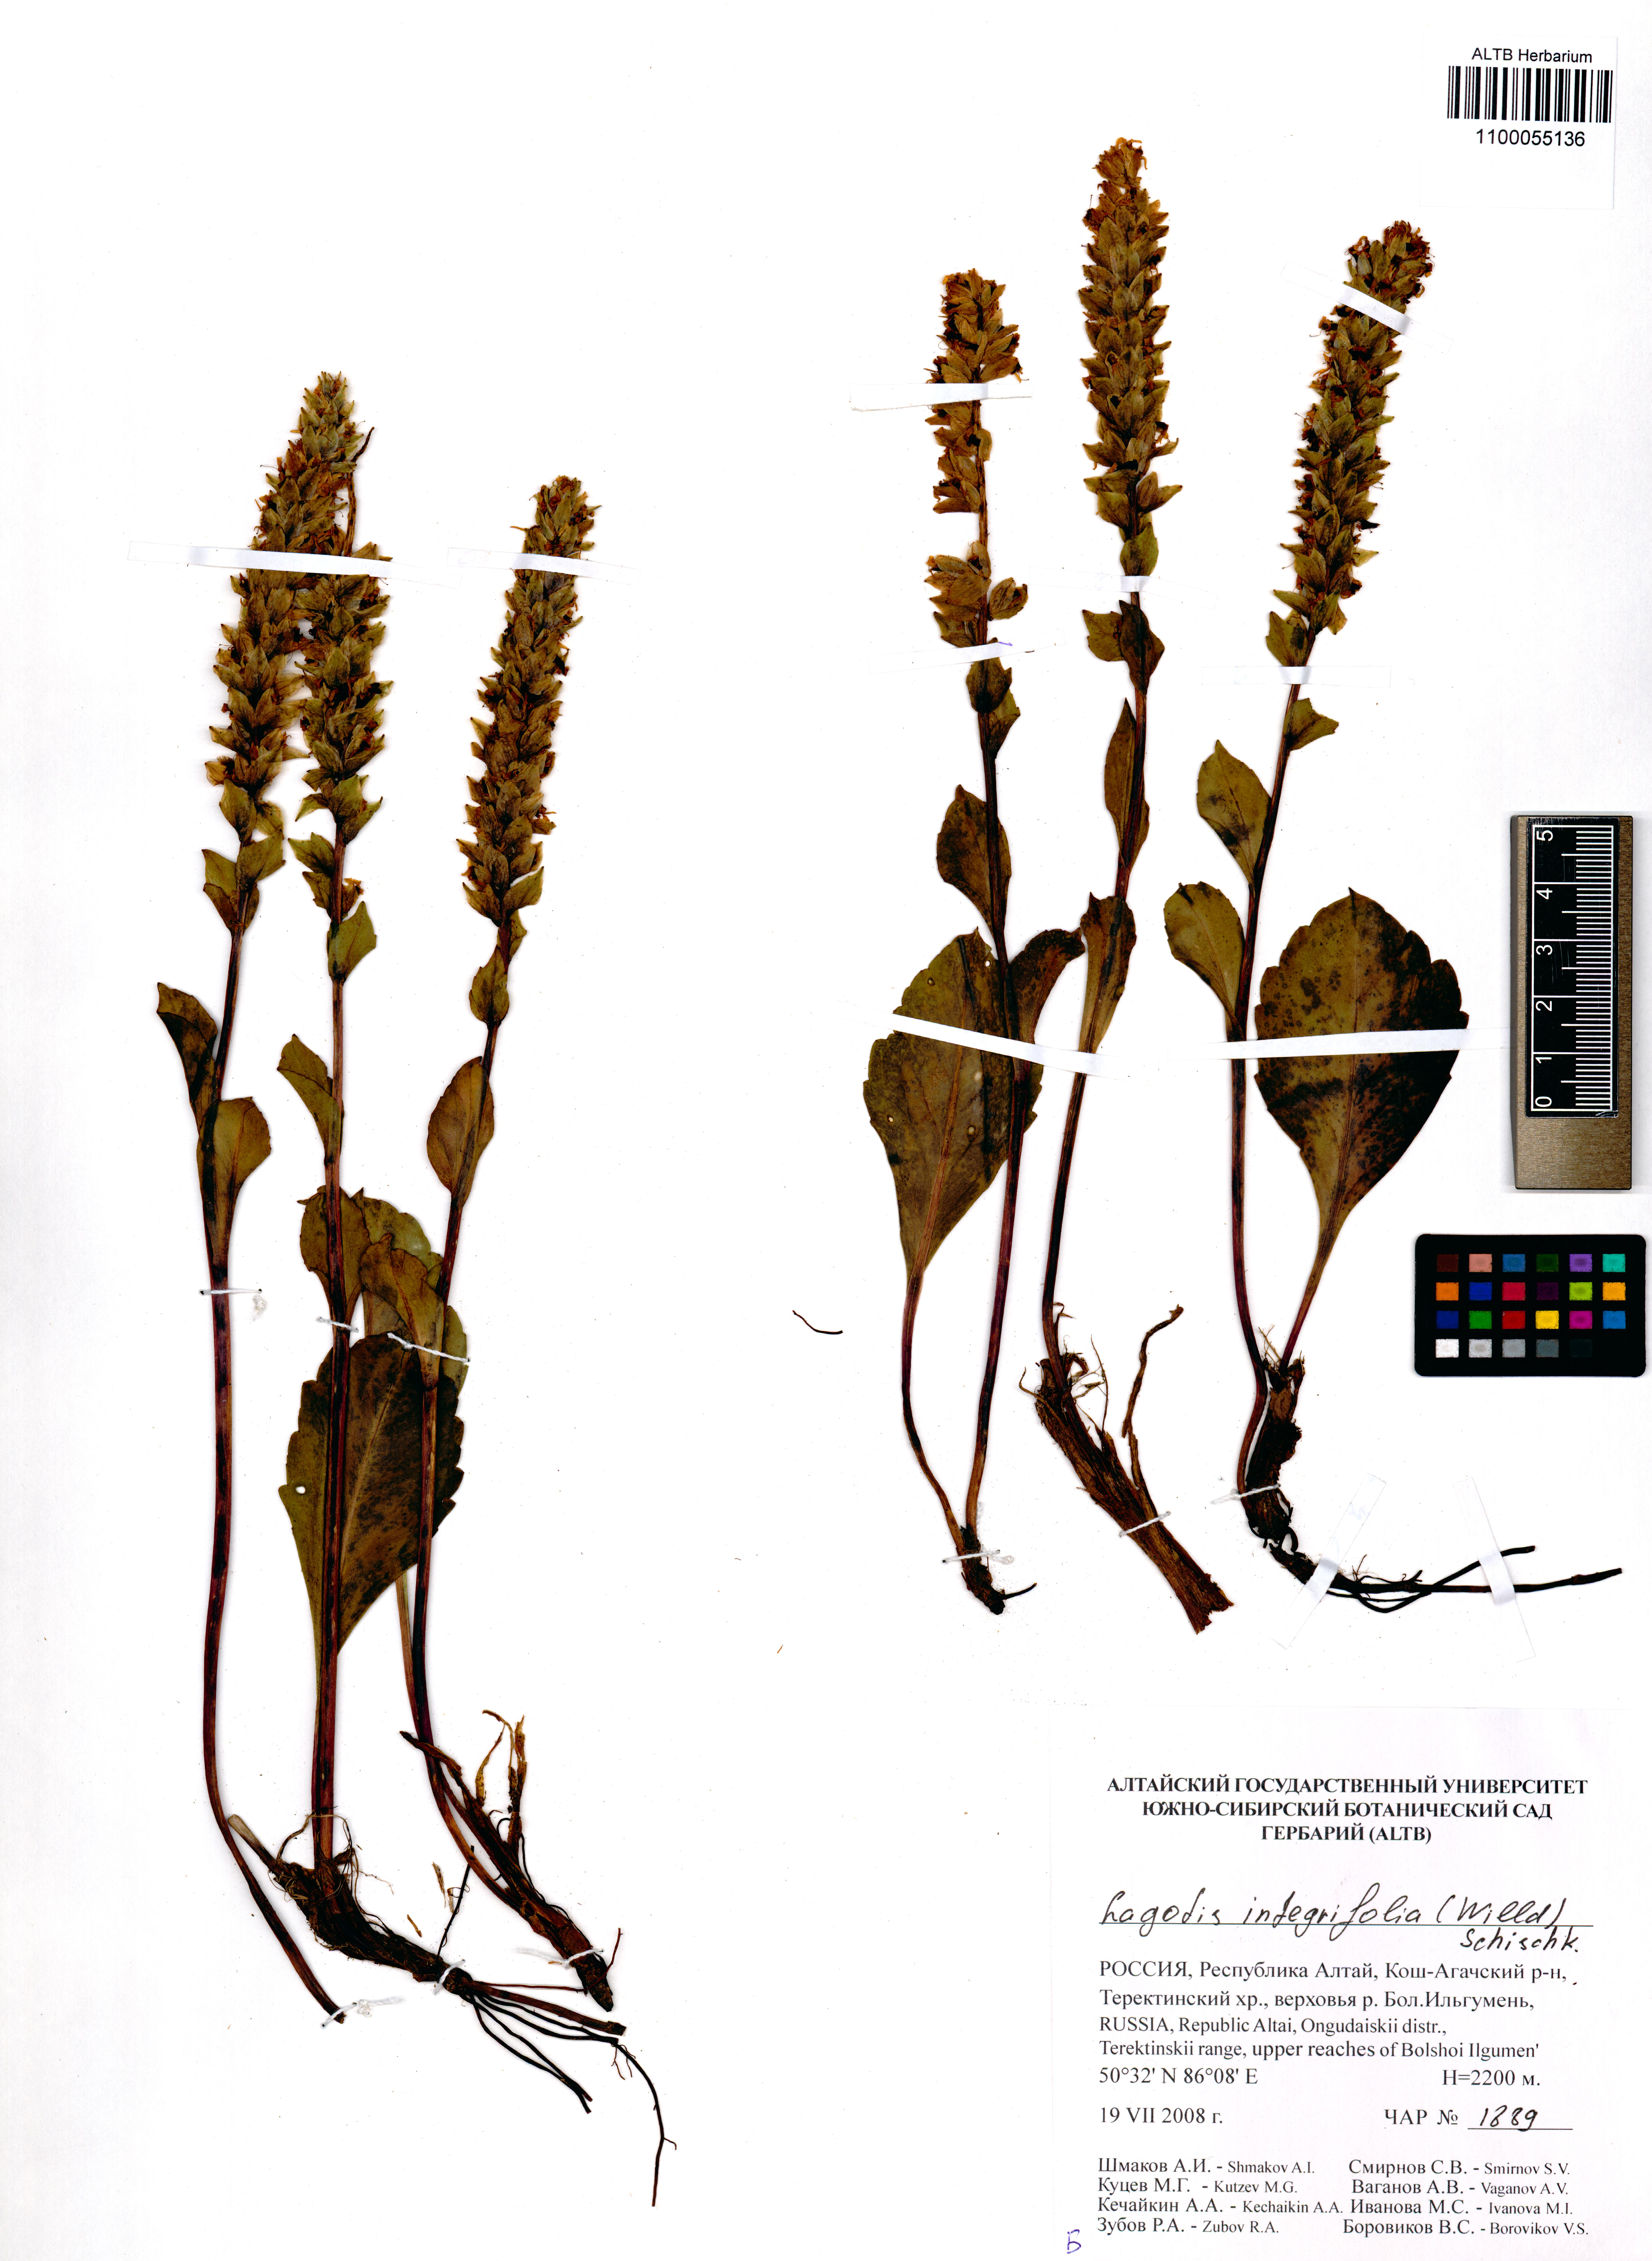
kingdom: Plantae
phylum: Tracheophyta
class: Magnoliopsida
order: Lamiales
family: Plantaginaceae
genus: Lagotis
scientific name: Lagotis integrifolia
